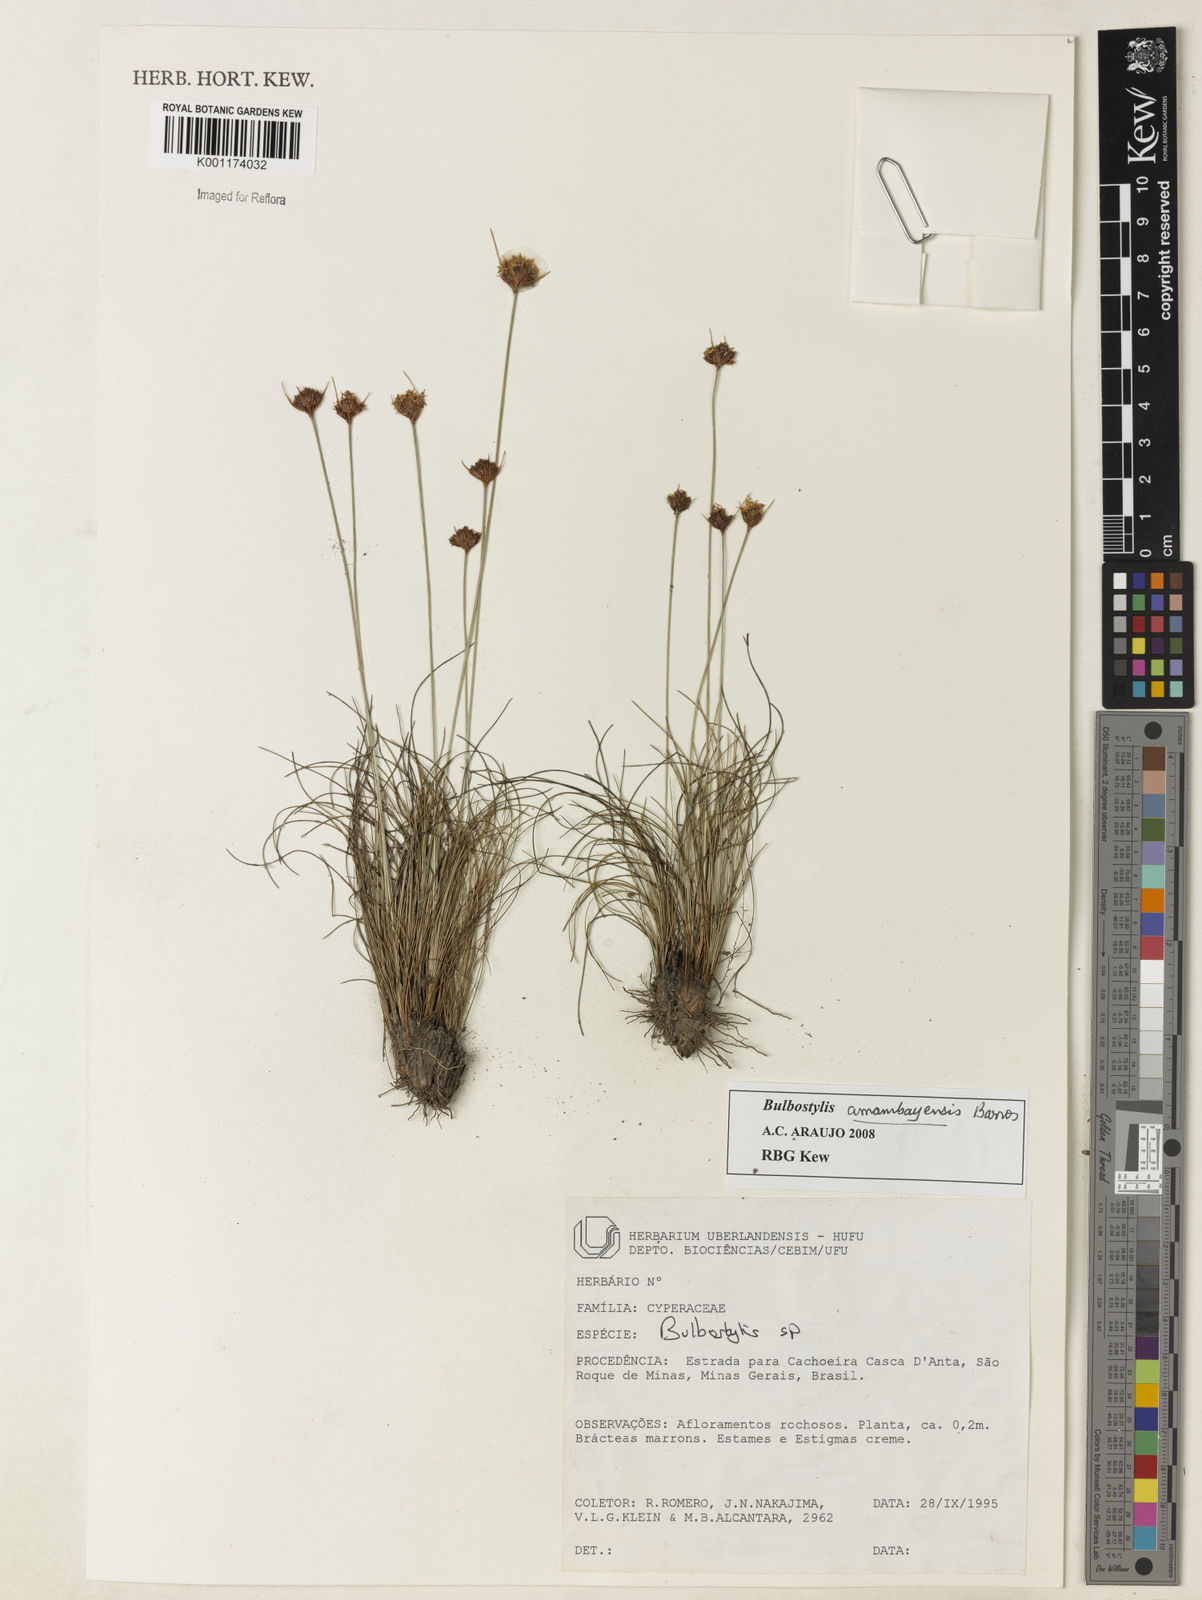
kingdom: Plantae
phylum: Tracheophyta
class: Liliopsida
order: Poales
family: Cyperaceae
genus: Bulbostylis
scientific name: Bulbostylis amambayensis
